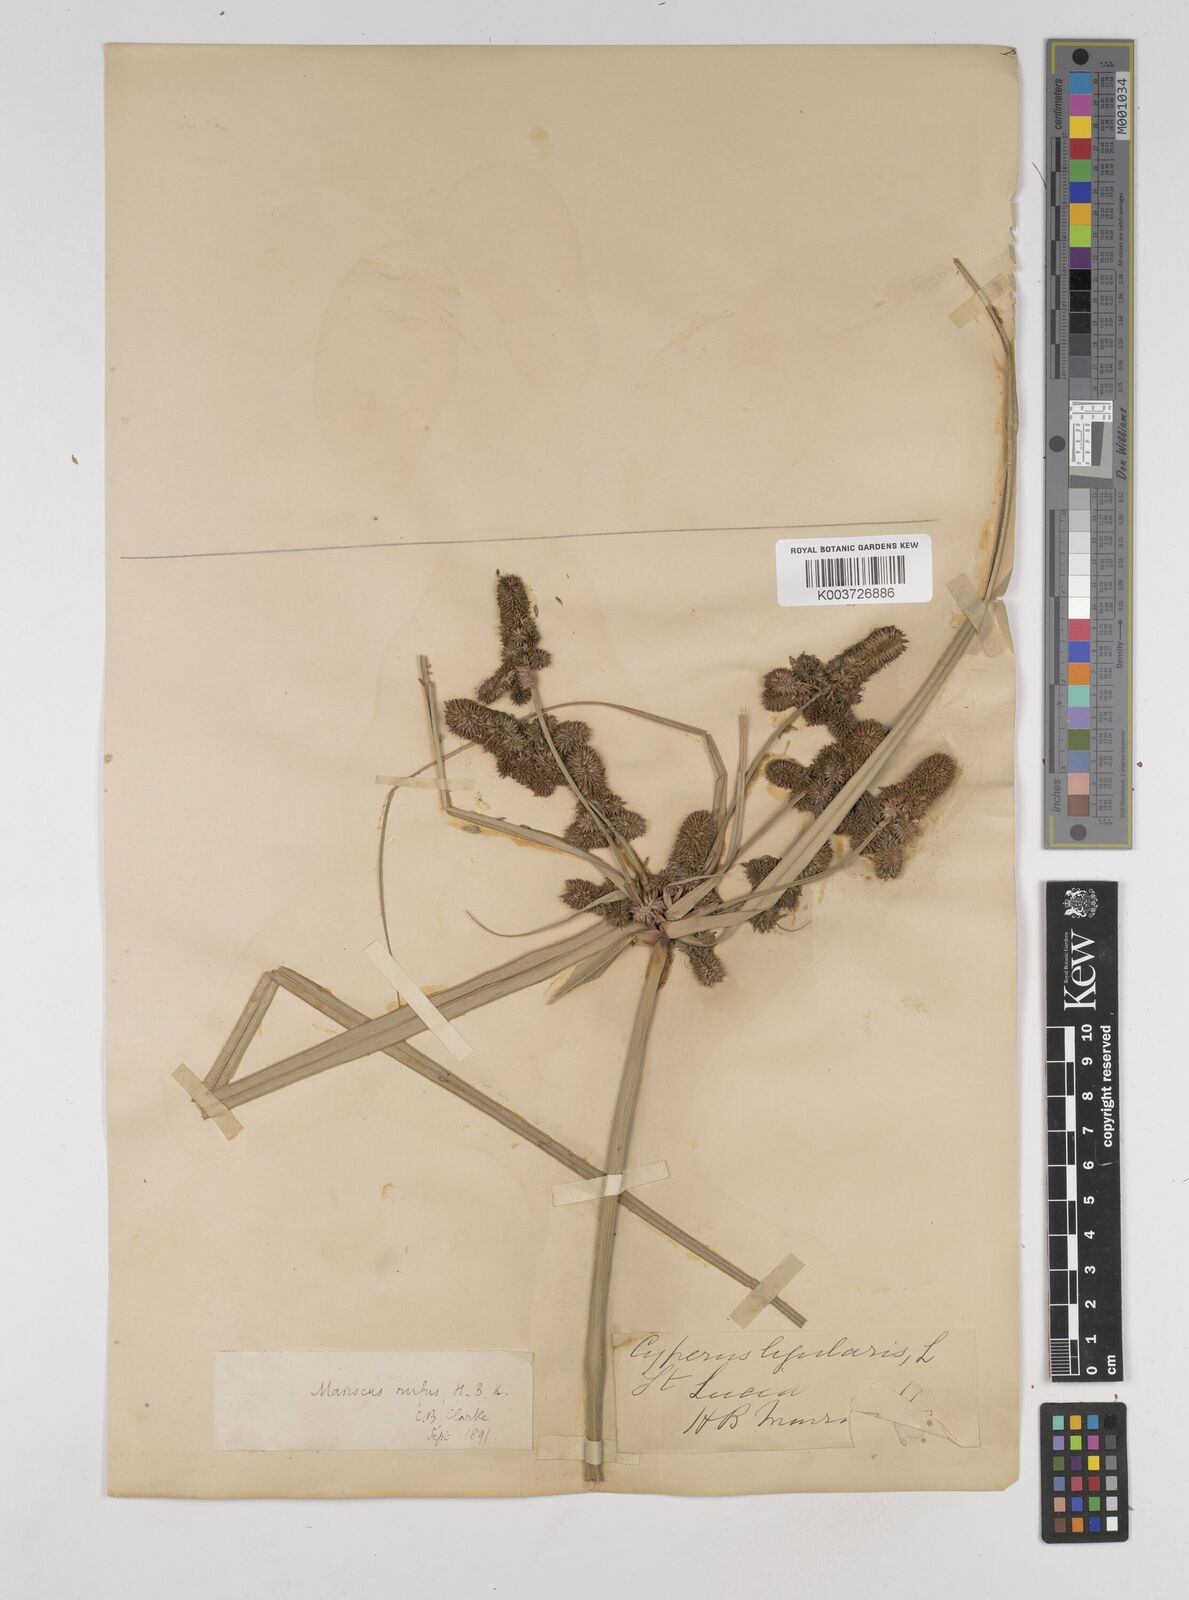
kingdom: Plantae
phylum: Tracheophyta
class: Liliopsida
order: Poales
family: Cyperaceae
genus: Cyperus
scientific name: Cyperus ligularis
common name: Swamp flat sedge
